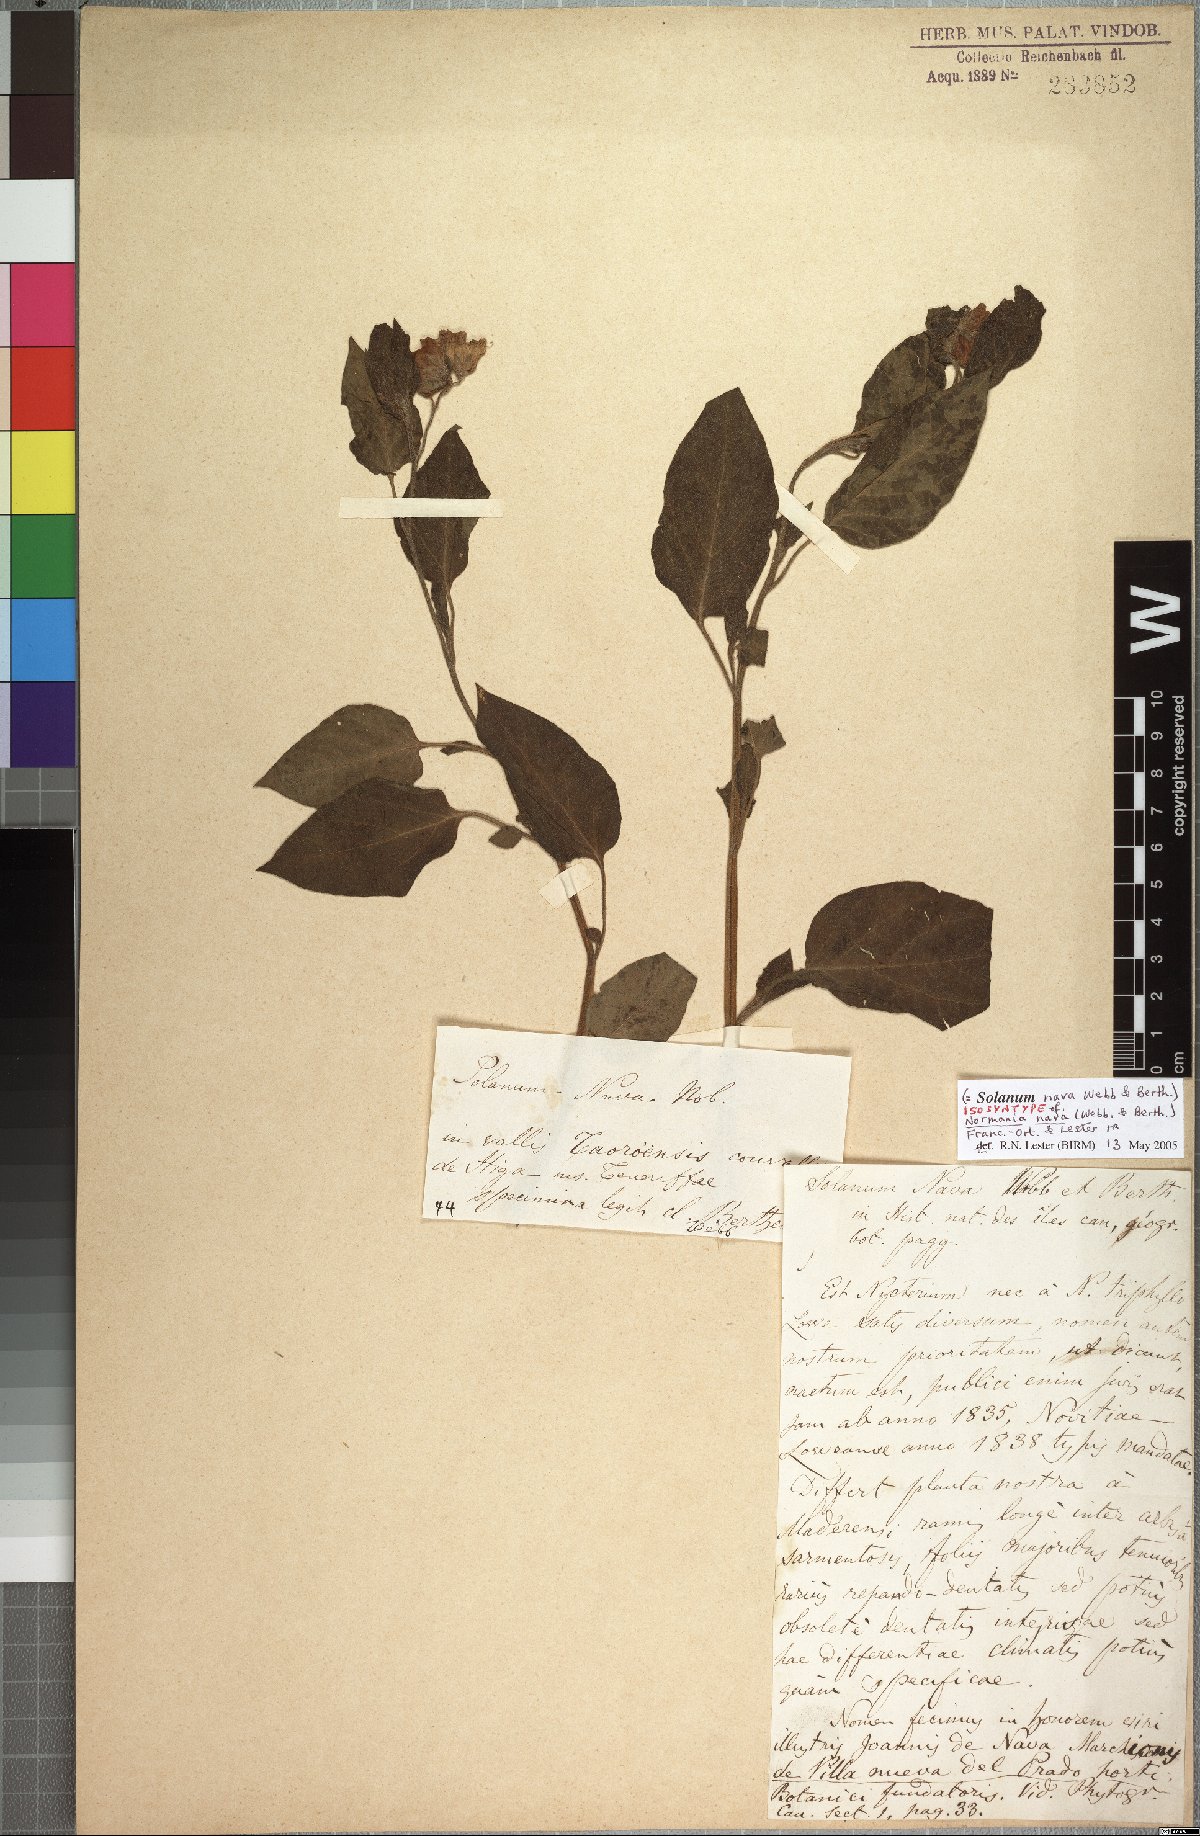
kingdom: Plantae
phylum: Tracheophyta
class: Magnoliopsida
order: Solanales
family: Solanaceae
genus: Solanum
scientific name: Solanum nava
